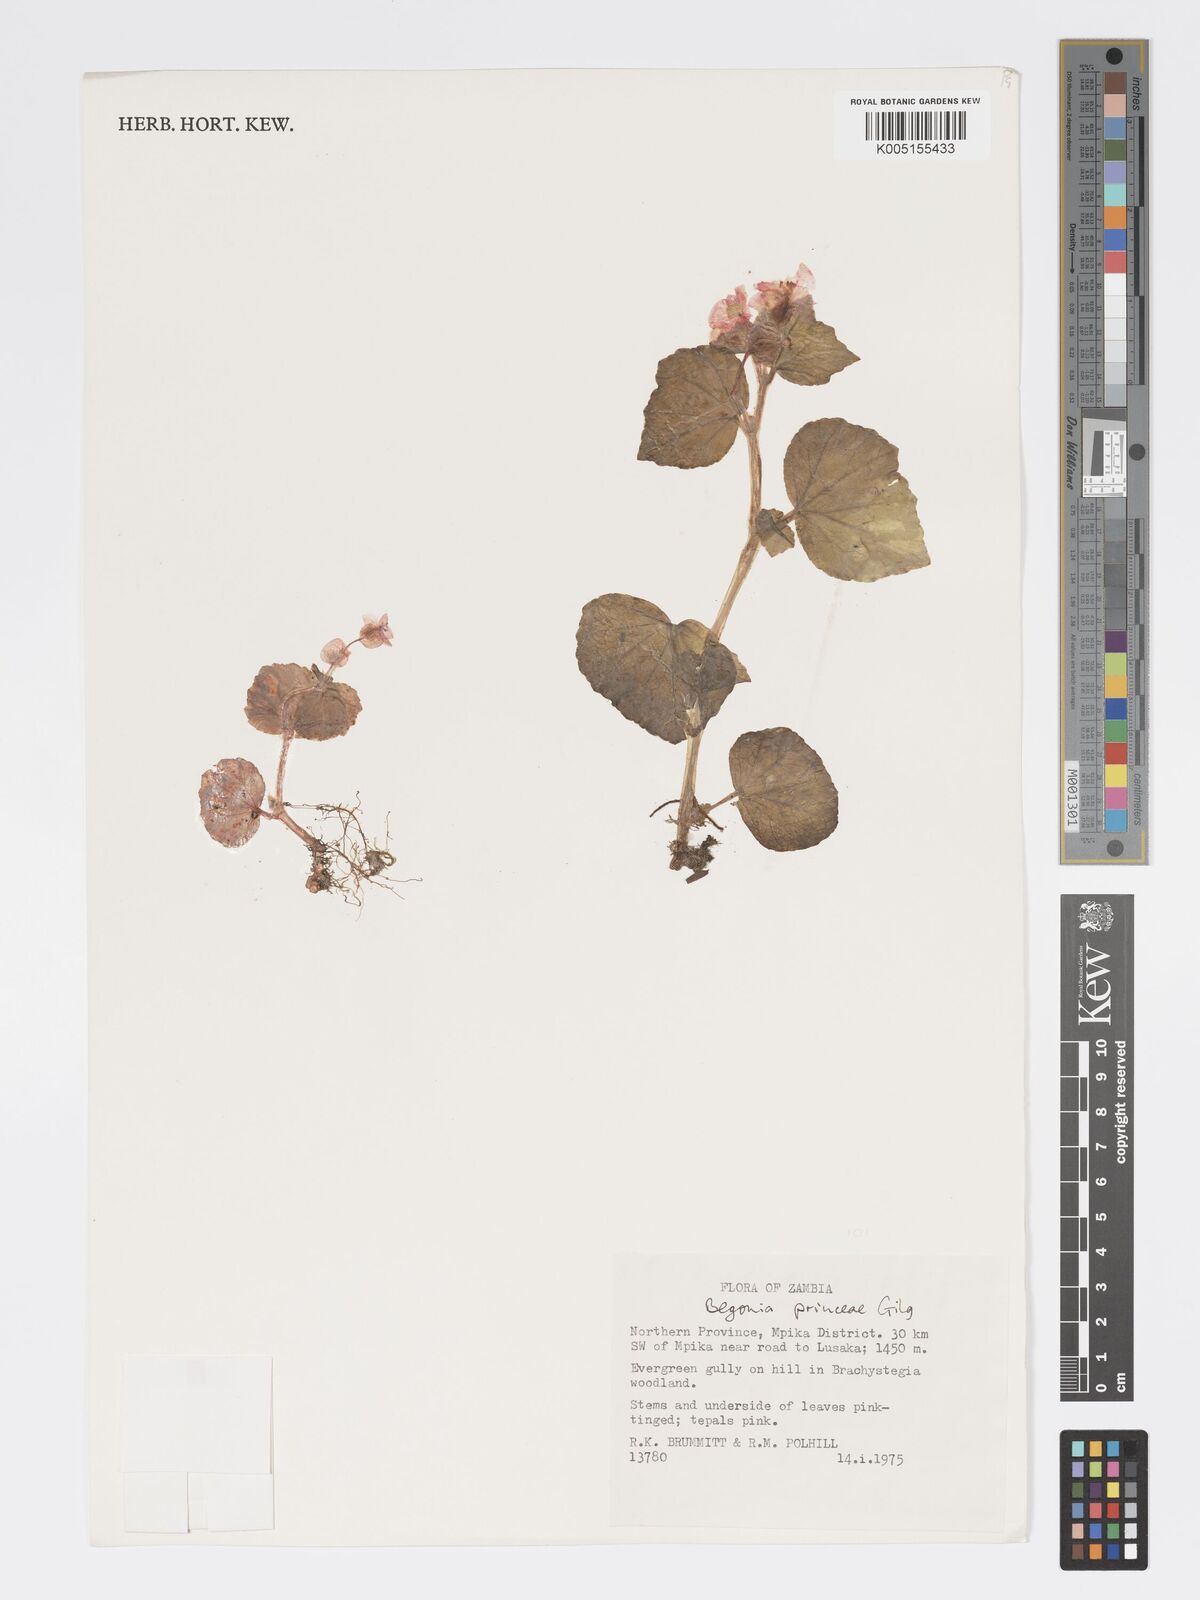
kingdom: Plantae
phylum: Tracheophyta
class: Magnoliopsida
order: Cucurbitales
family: Begoniaceae
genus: Begonia
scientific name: Begonia princeae
